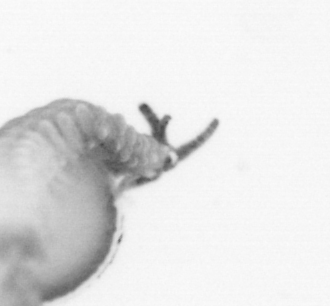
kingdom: Animalia
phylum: Annelida
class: Polychaeta
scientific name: Polychaeta
